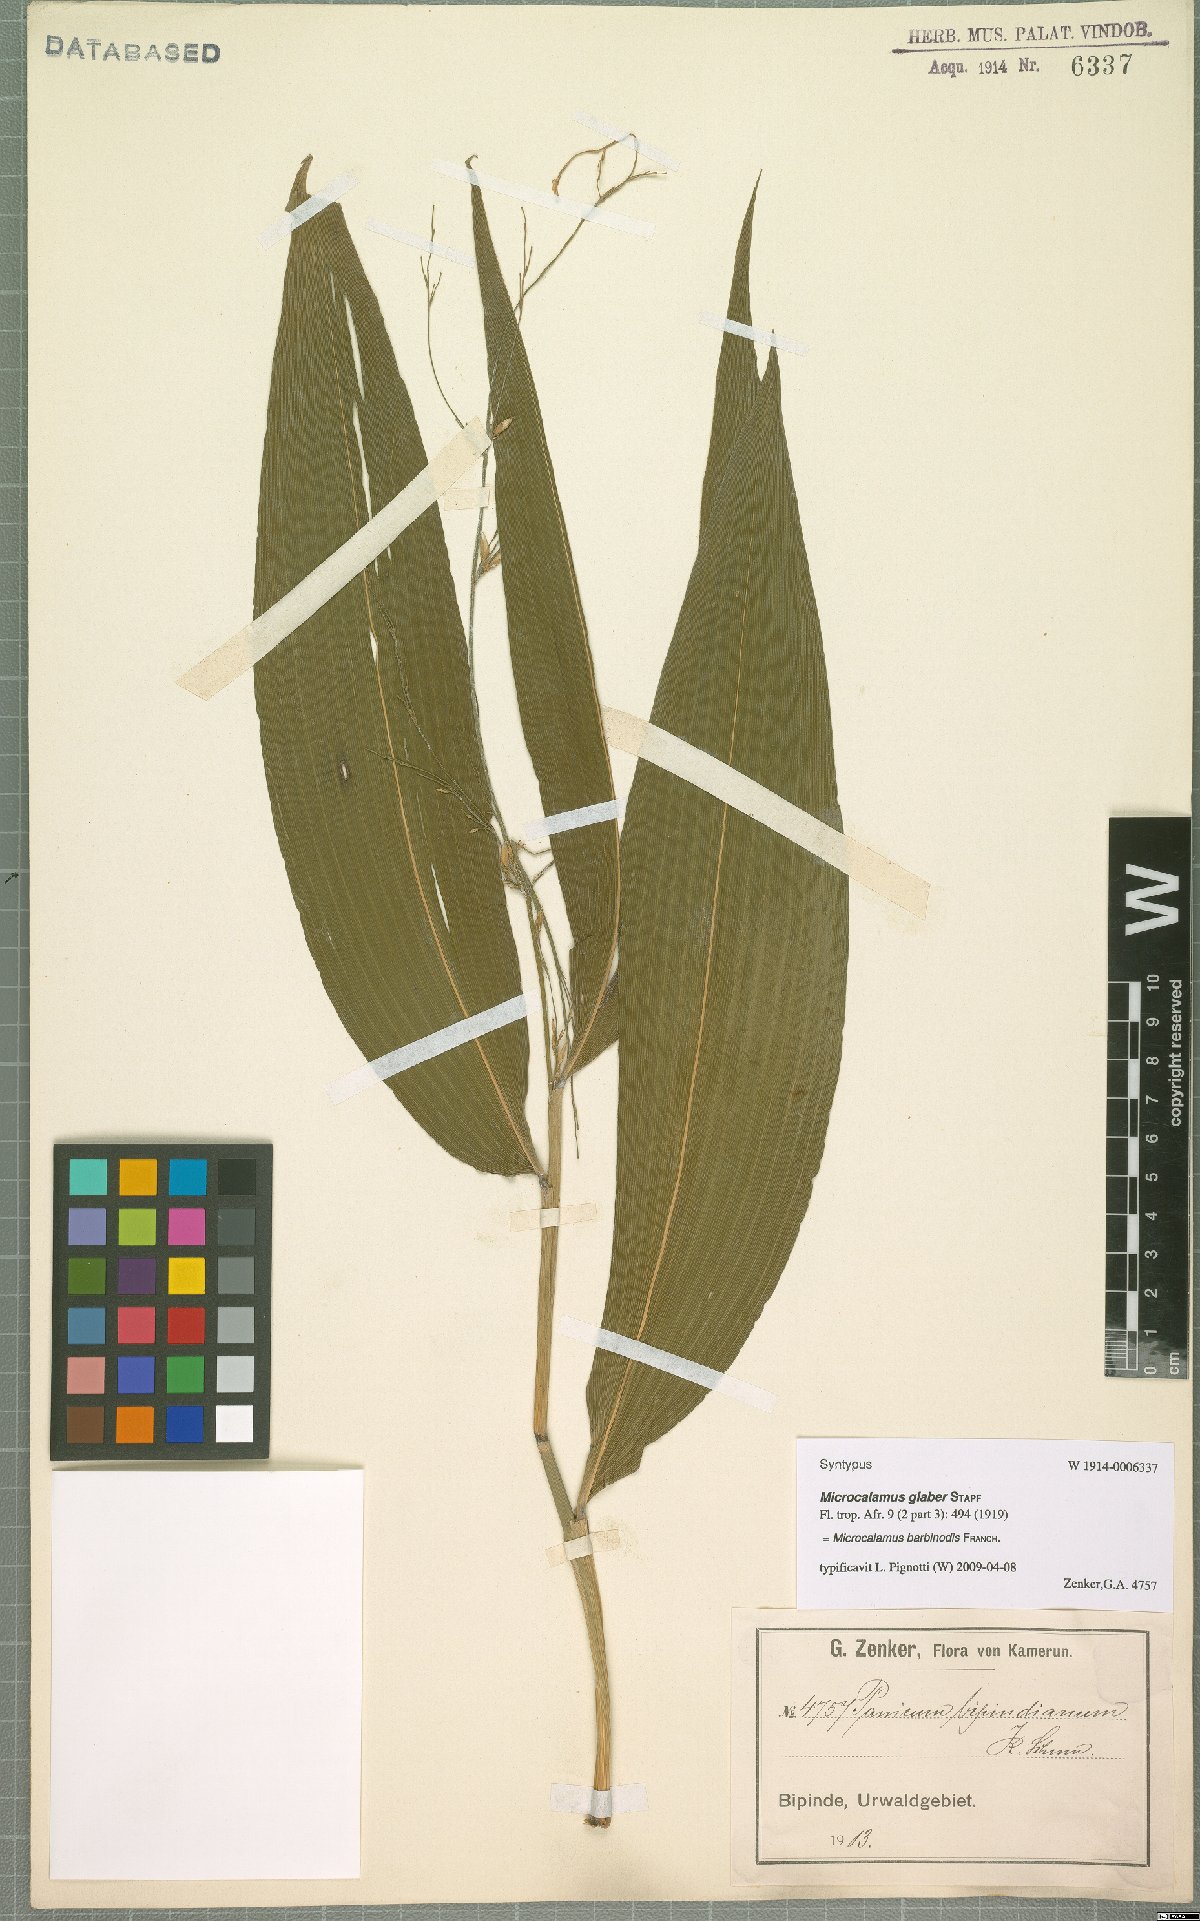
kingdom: Plantae
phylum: Tracheophyta
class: Liliopsida
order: Poales
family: Poaceae
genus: Microcalamus
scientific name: Microcalamus barbinodis
